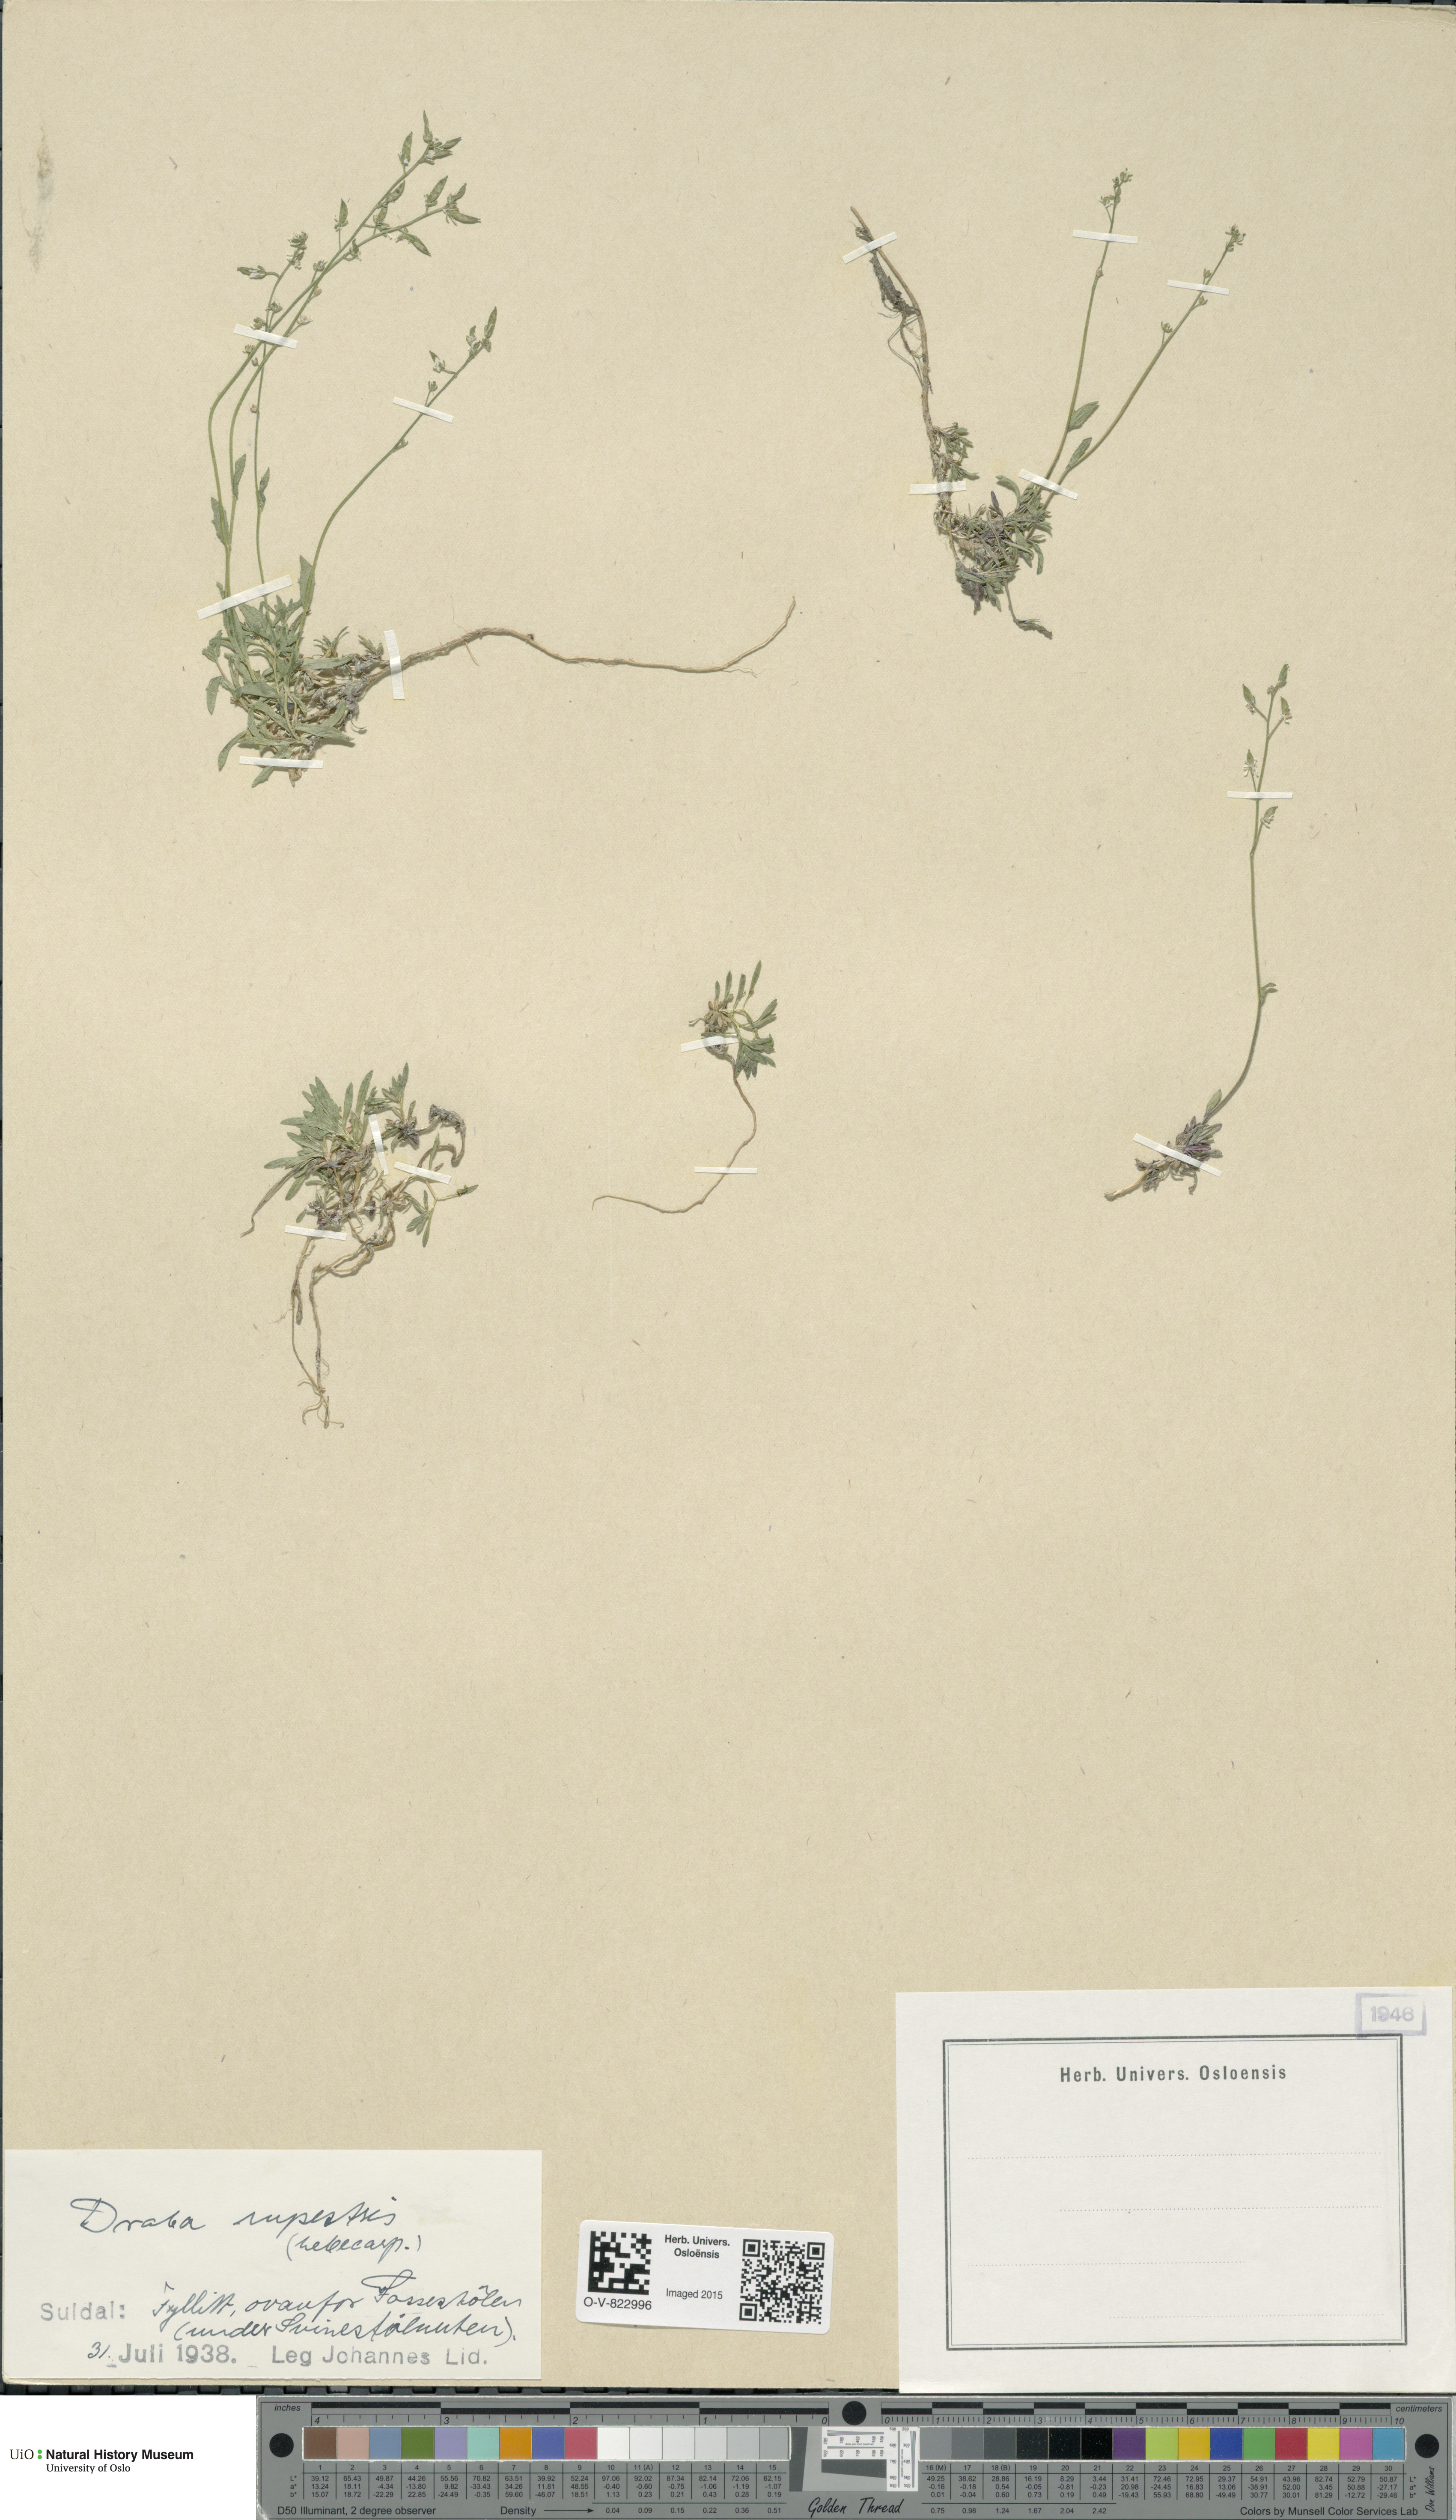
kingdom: Plantae
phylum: Tracheophyta
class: Magnoliopsida
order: Brassicales
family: Brassicaceae
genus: Draba
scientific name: Draba norvegica
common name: Rock whitlowgrass
